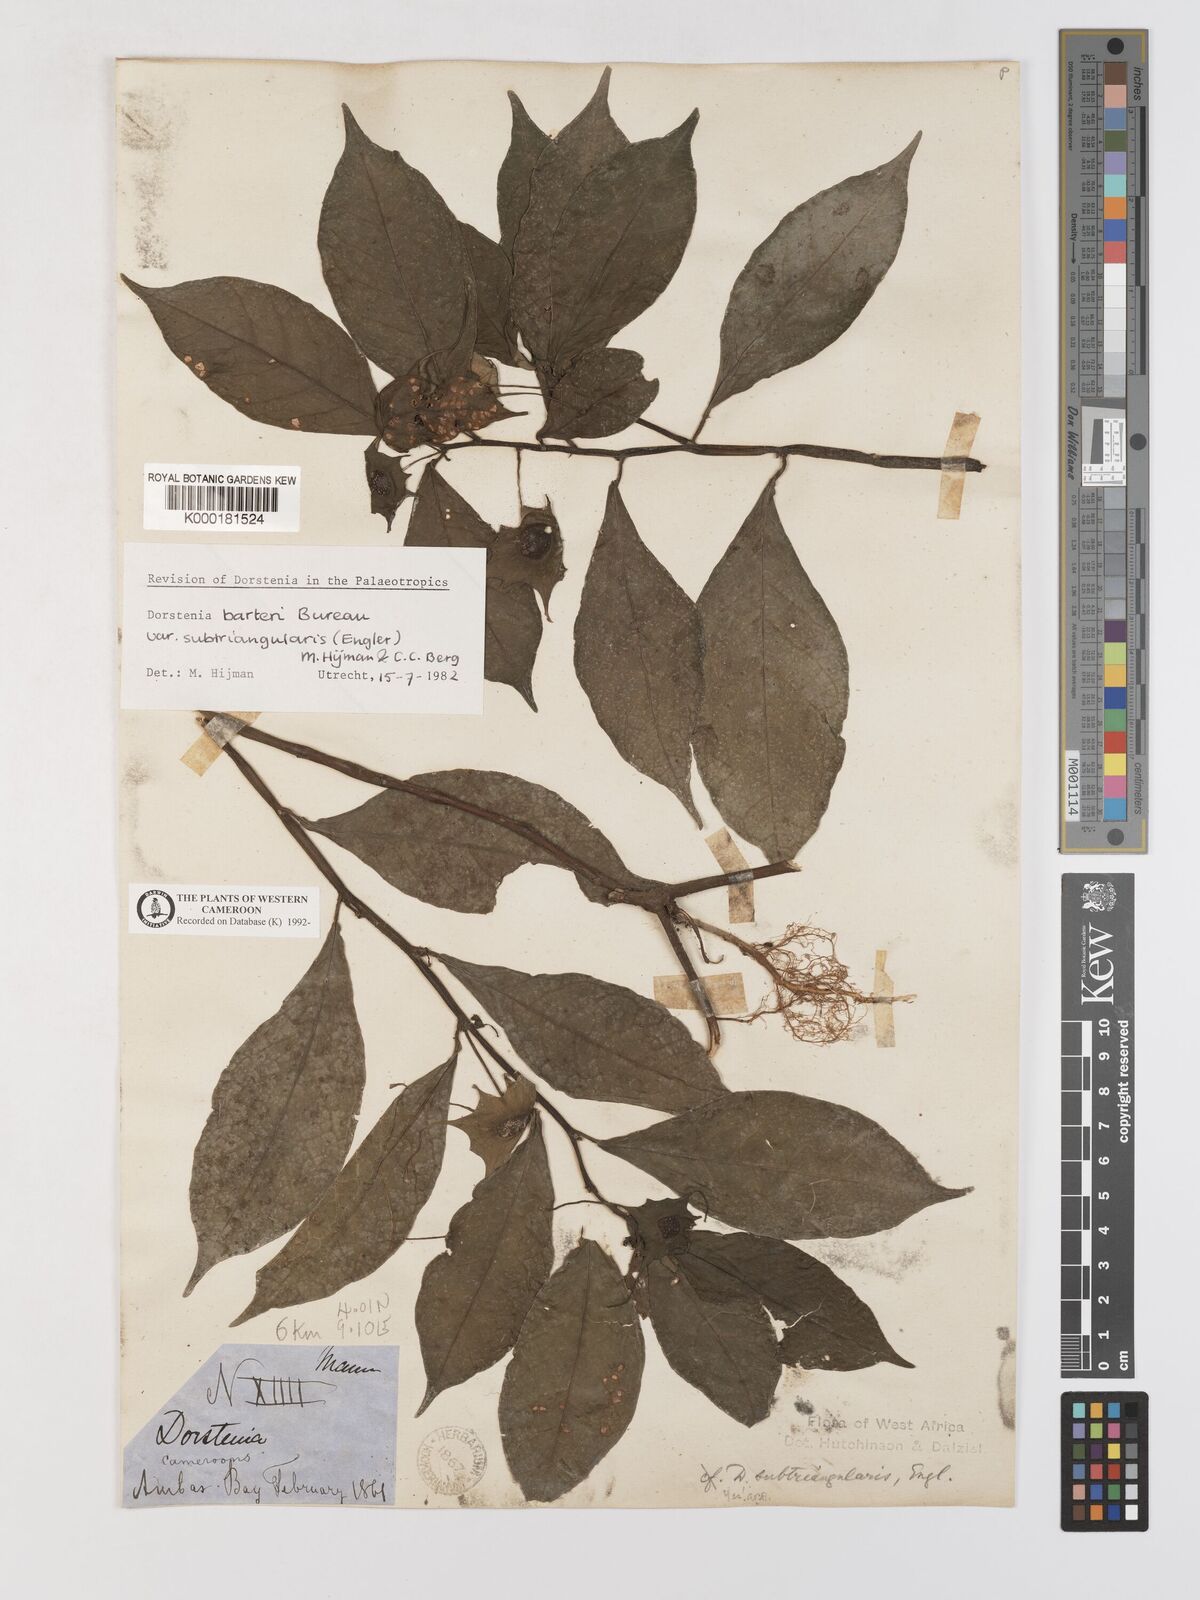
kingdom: Plantae
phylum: Tracheophyta
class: Magnoliopsida
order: Rosales
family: Moraceae
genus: Dorstenia
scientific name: Dorstenia barteri
